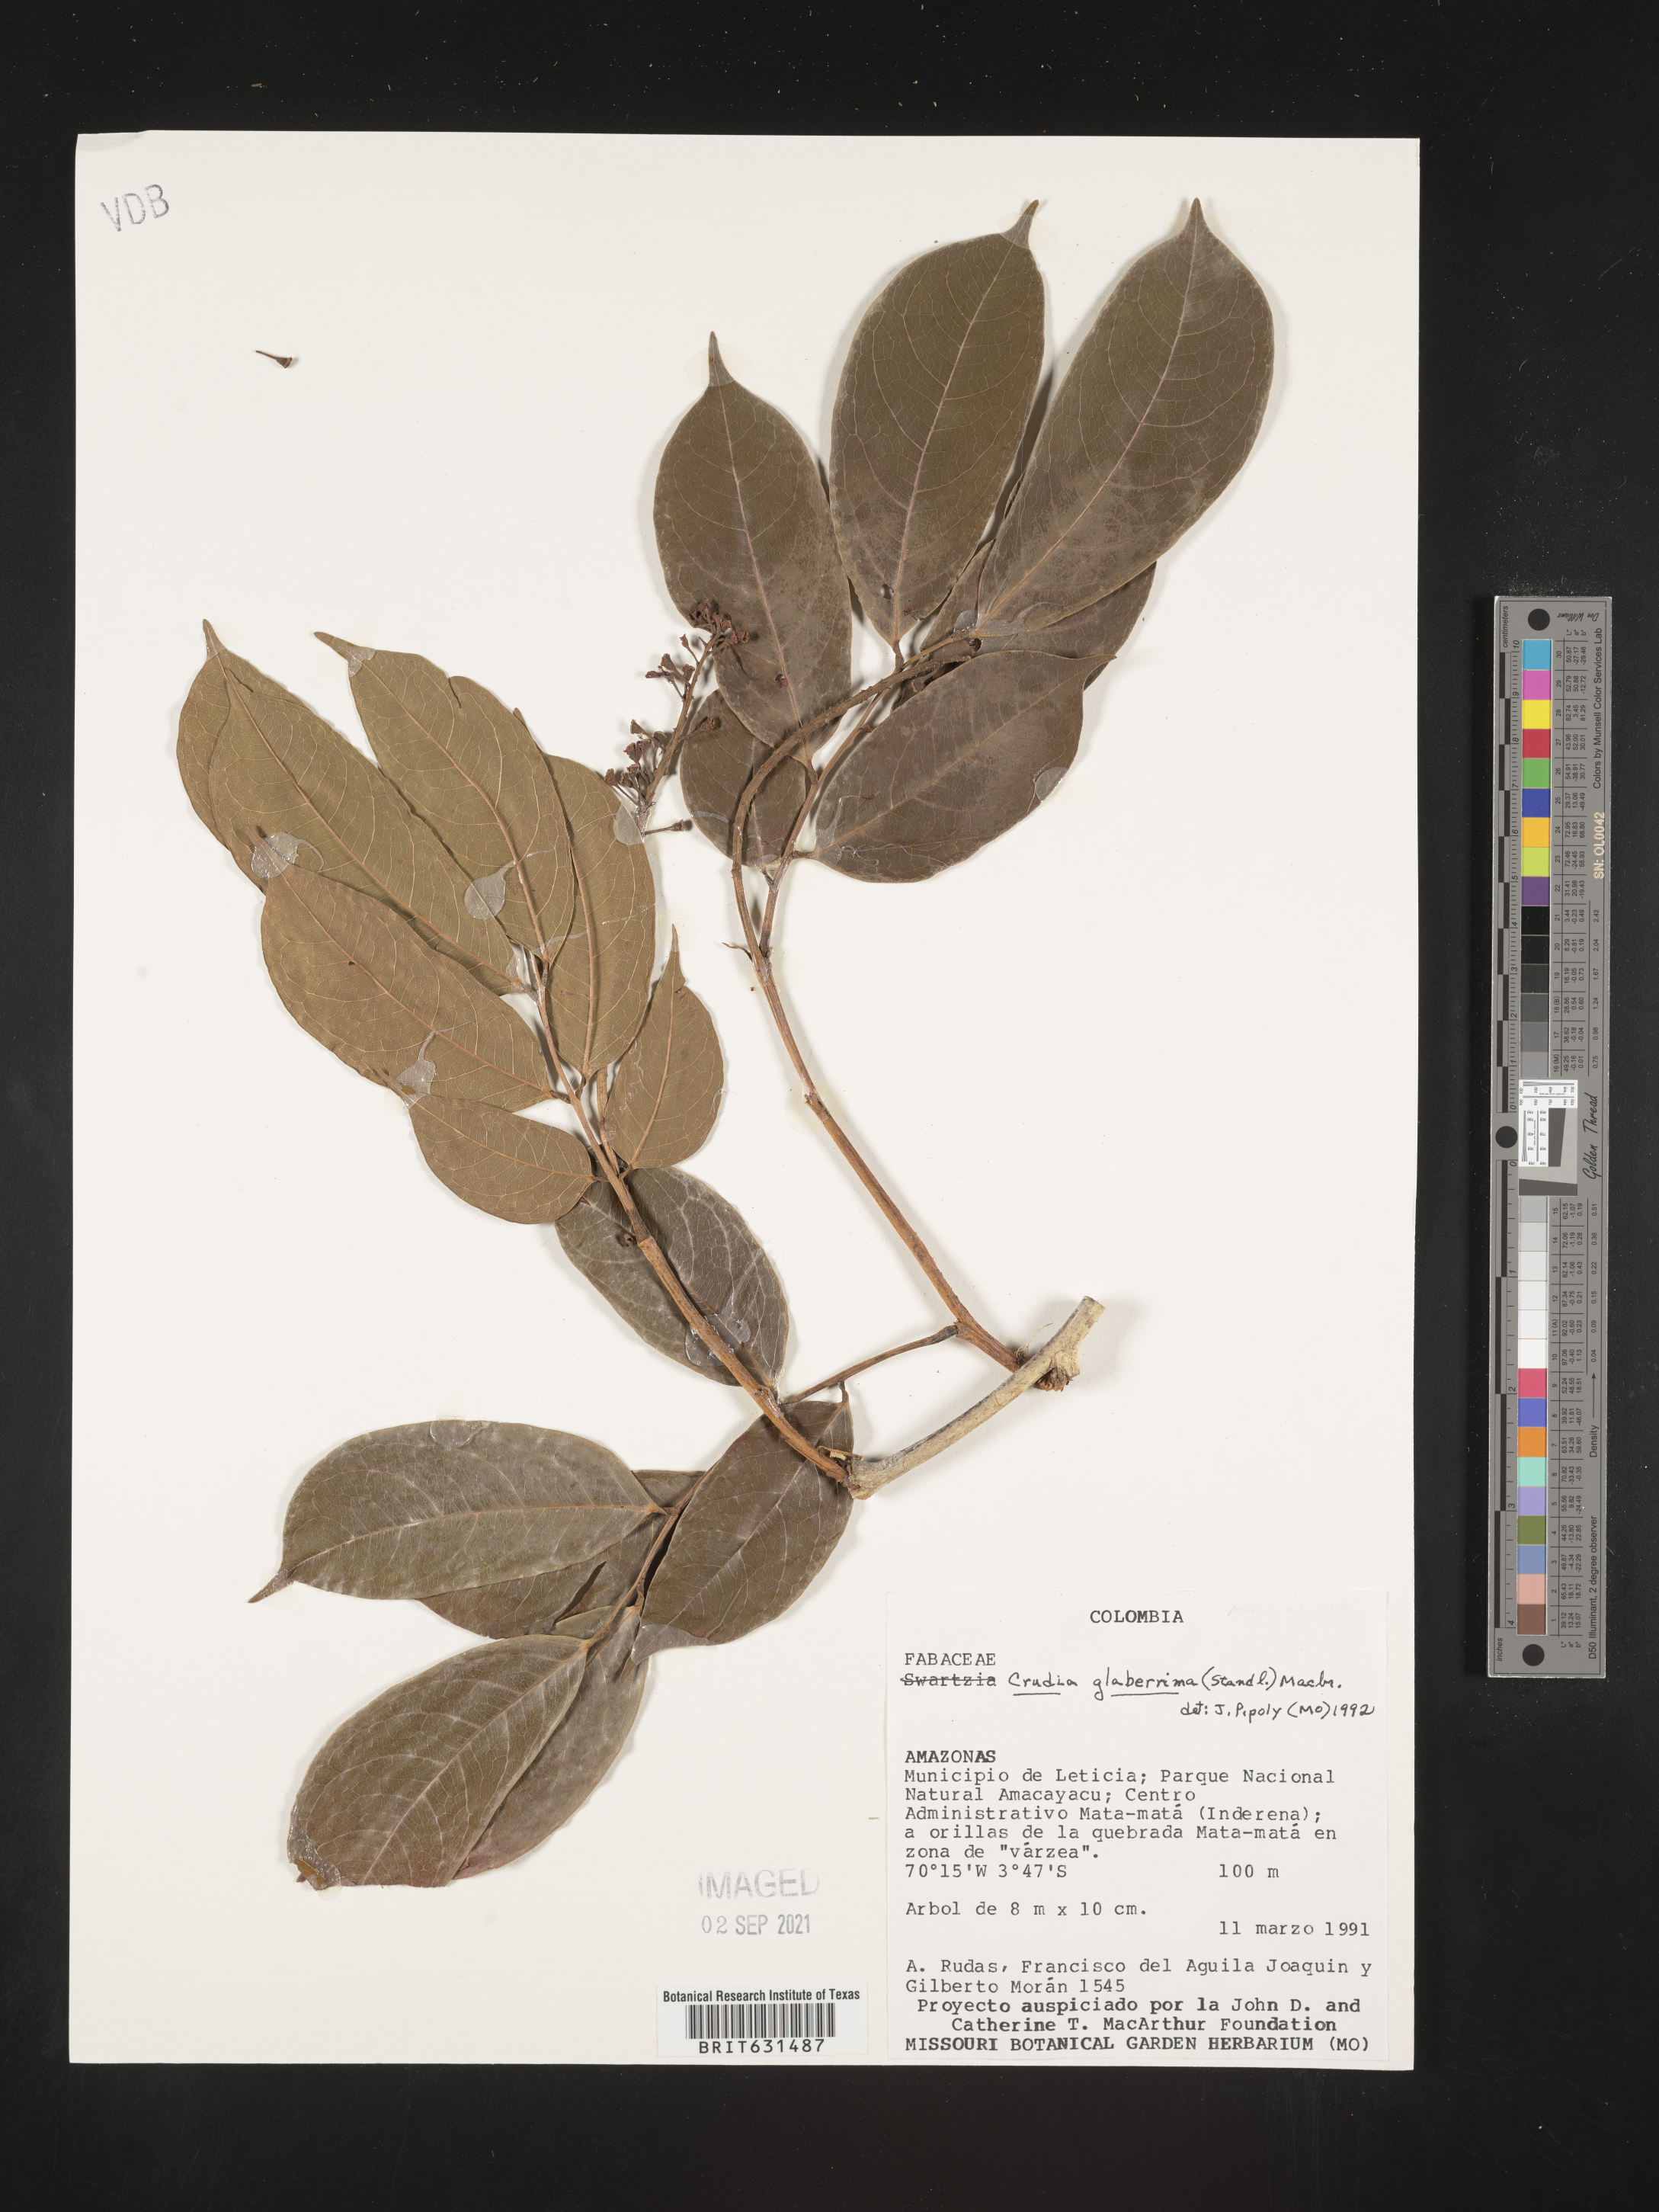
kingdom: Plantae
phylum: Tracheophyta
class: Magnoliopsida
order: Fabales
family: Fabaceae
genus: Crudia
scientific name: Crudia glaberrima
